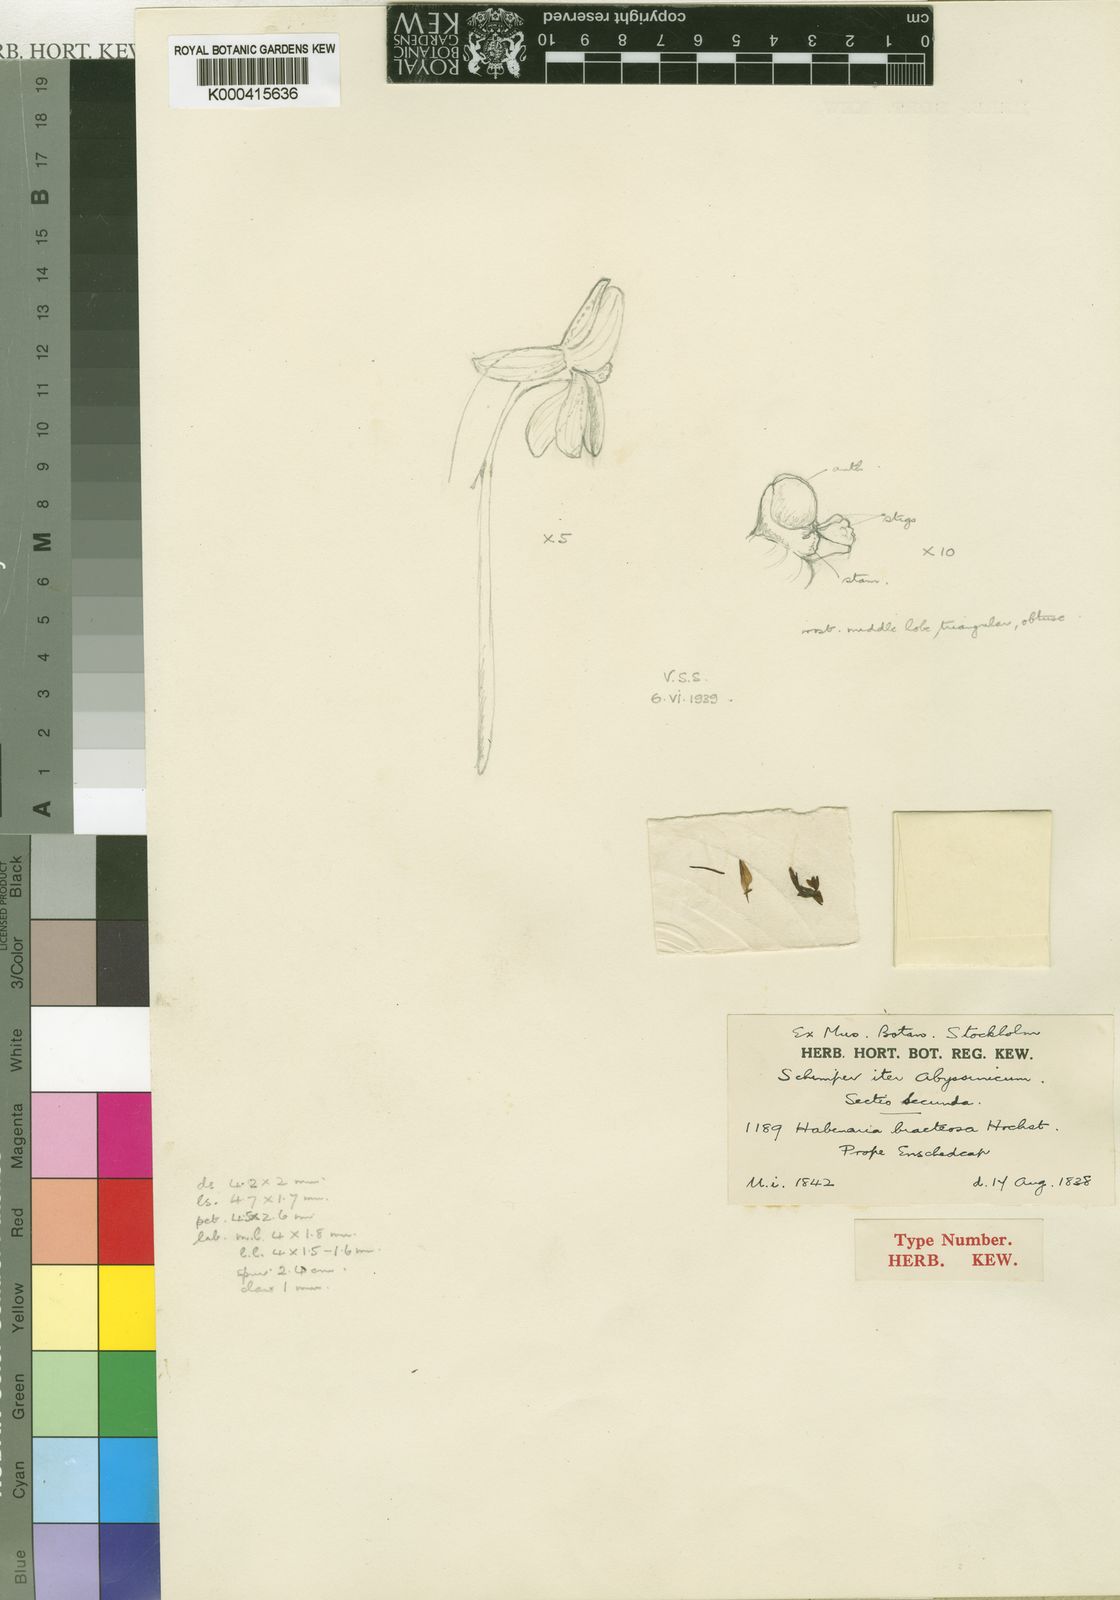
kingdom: Plantae
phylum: Tracheophyta
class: Liliopsida
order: Asparagales
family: Orchidaceae
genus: Habenaria
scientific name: Habenaria
